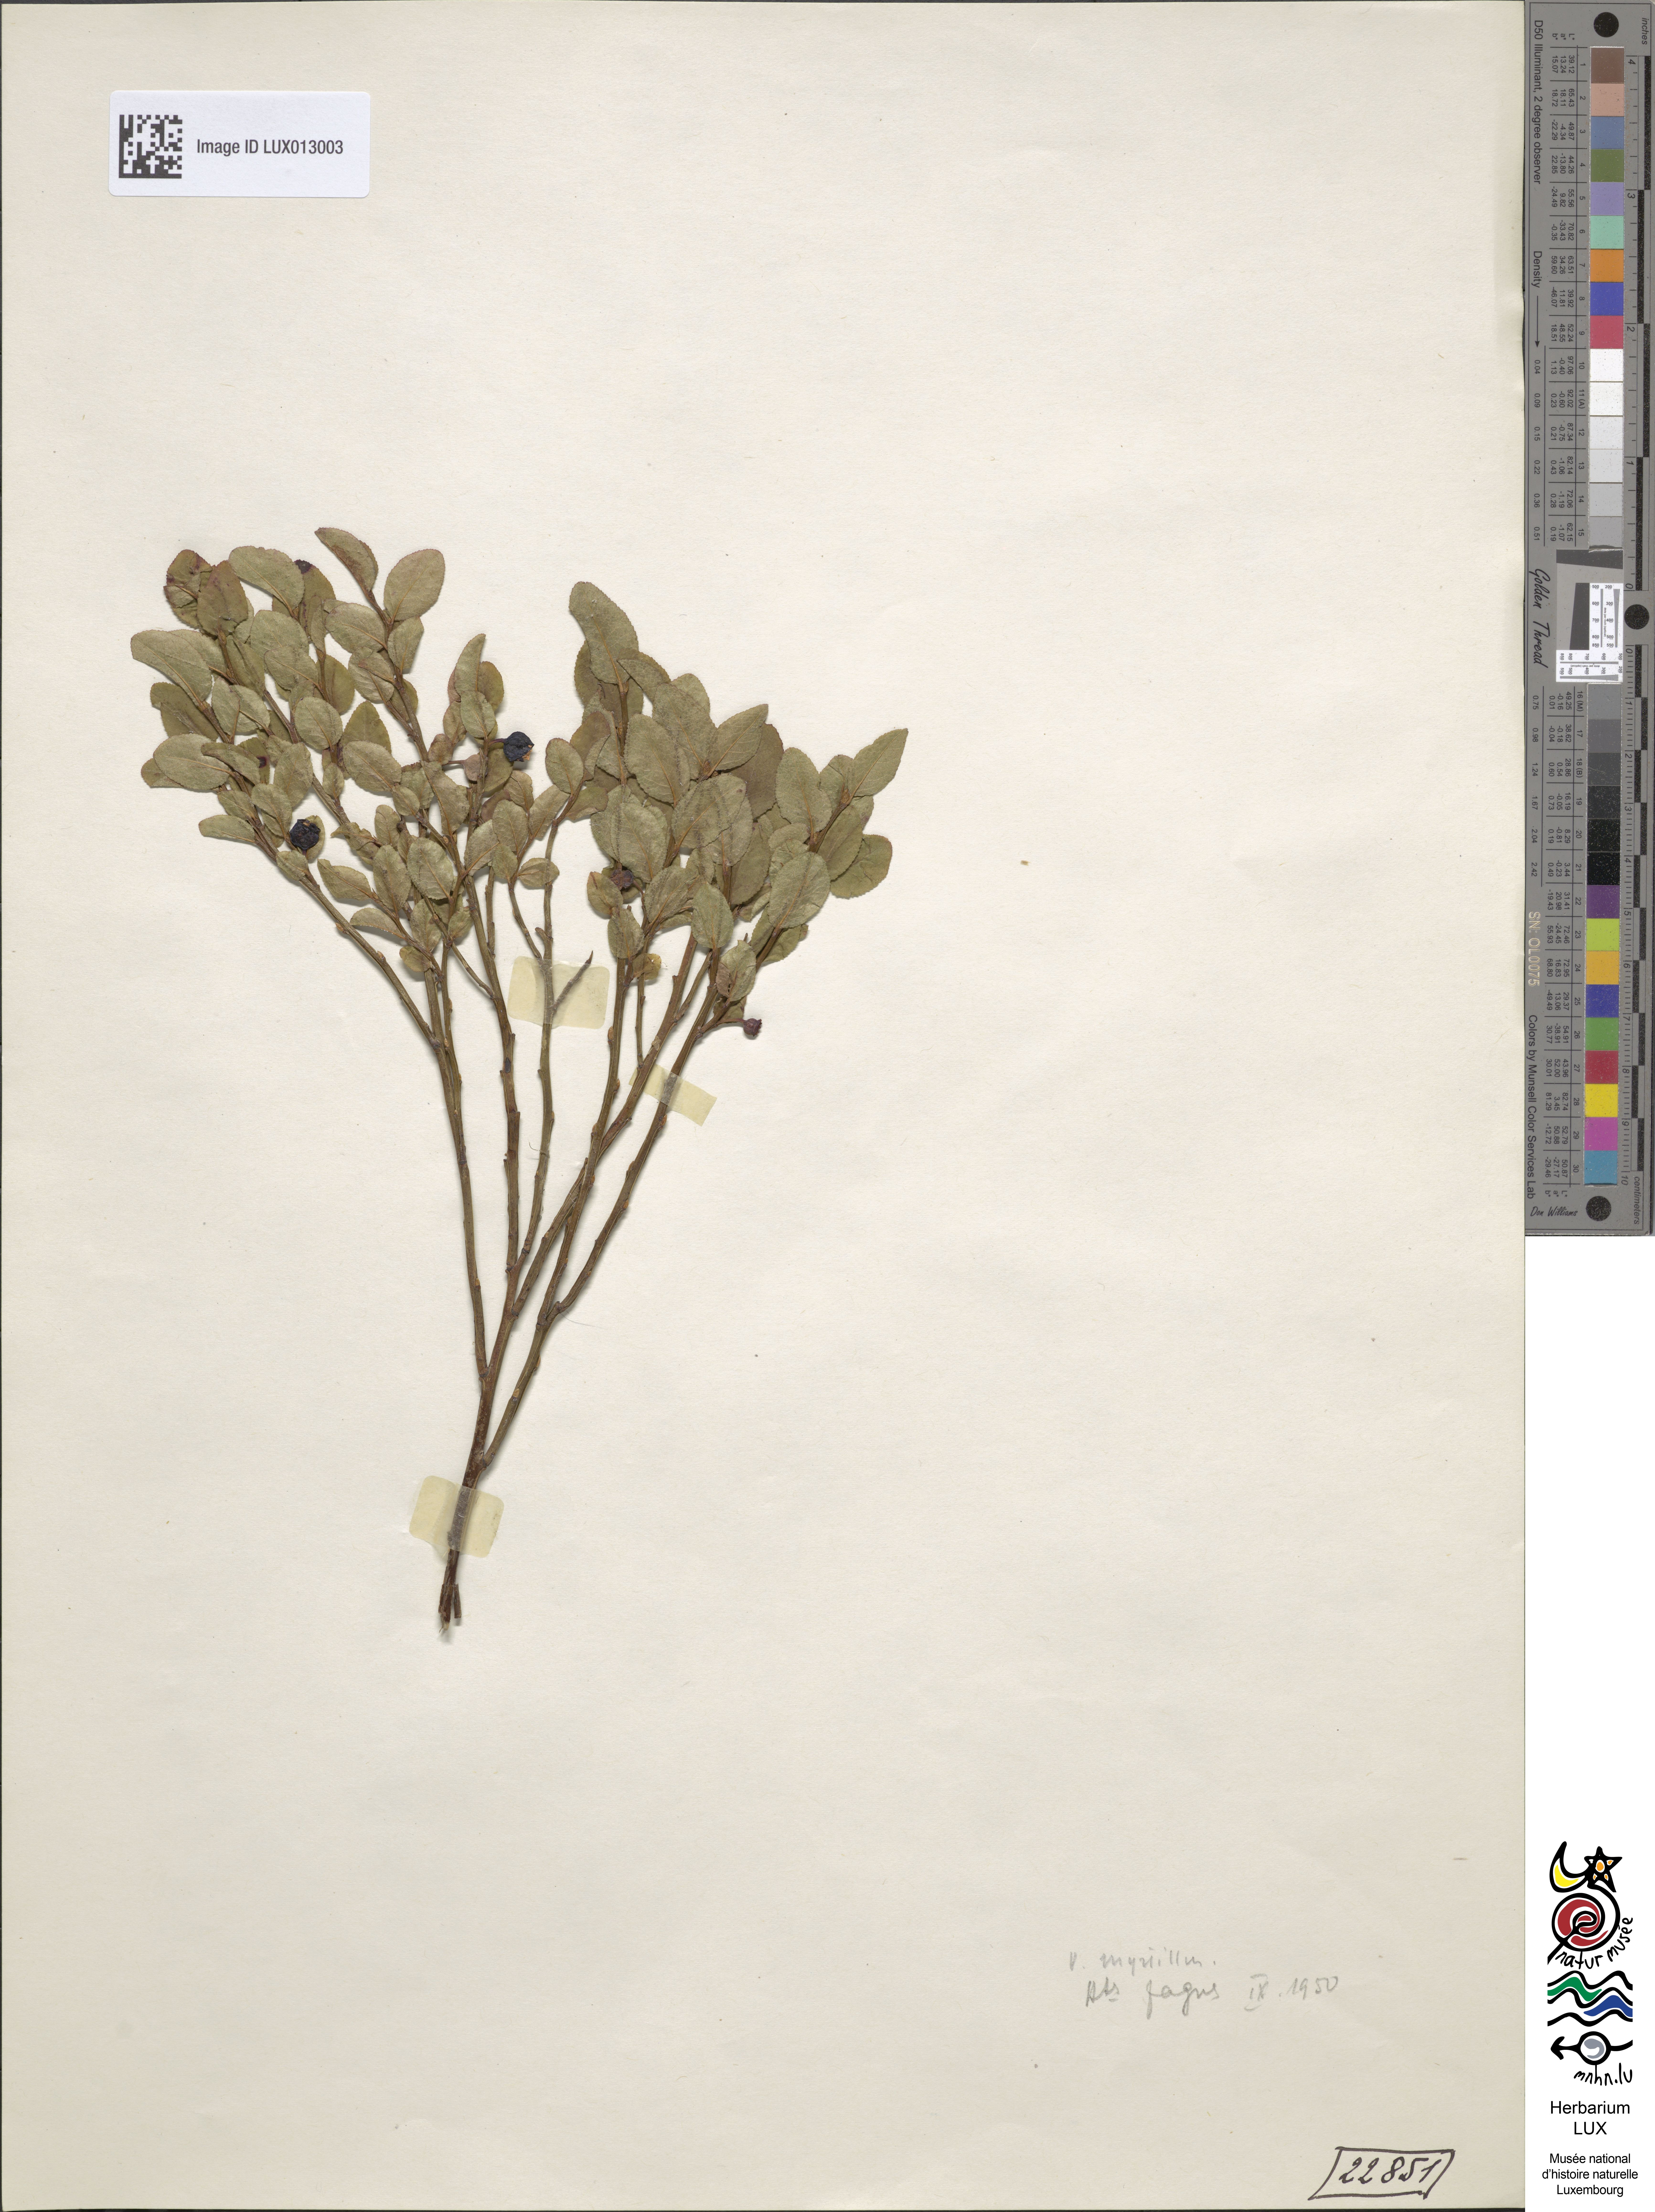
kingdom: Plantae
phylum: Tracheophyta
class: Magnoliopsida
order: Ericales
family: Ericaceae
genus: Vaccinium
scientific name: Vaccinium myrtillus
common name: Bilberry
